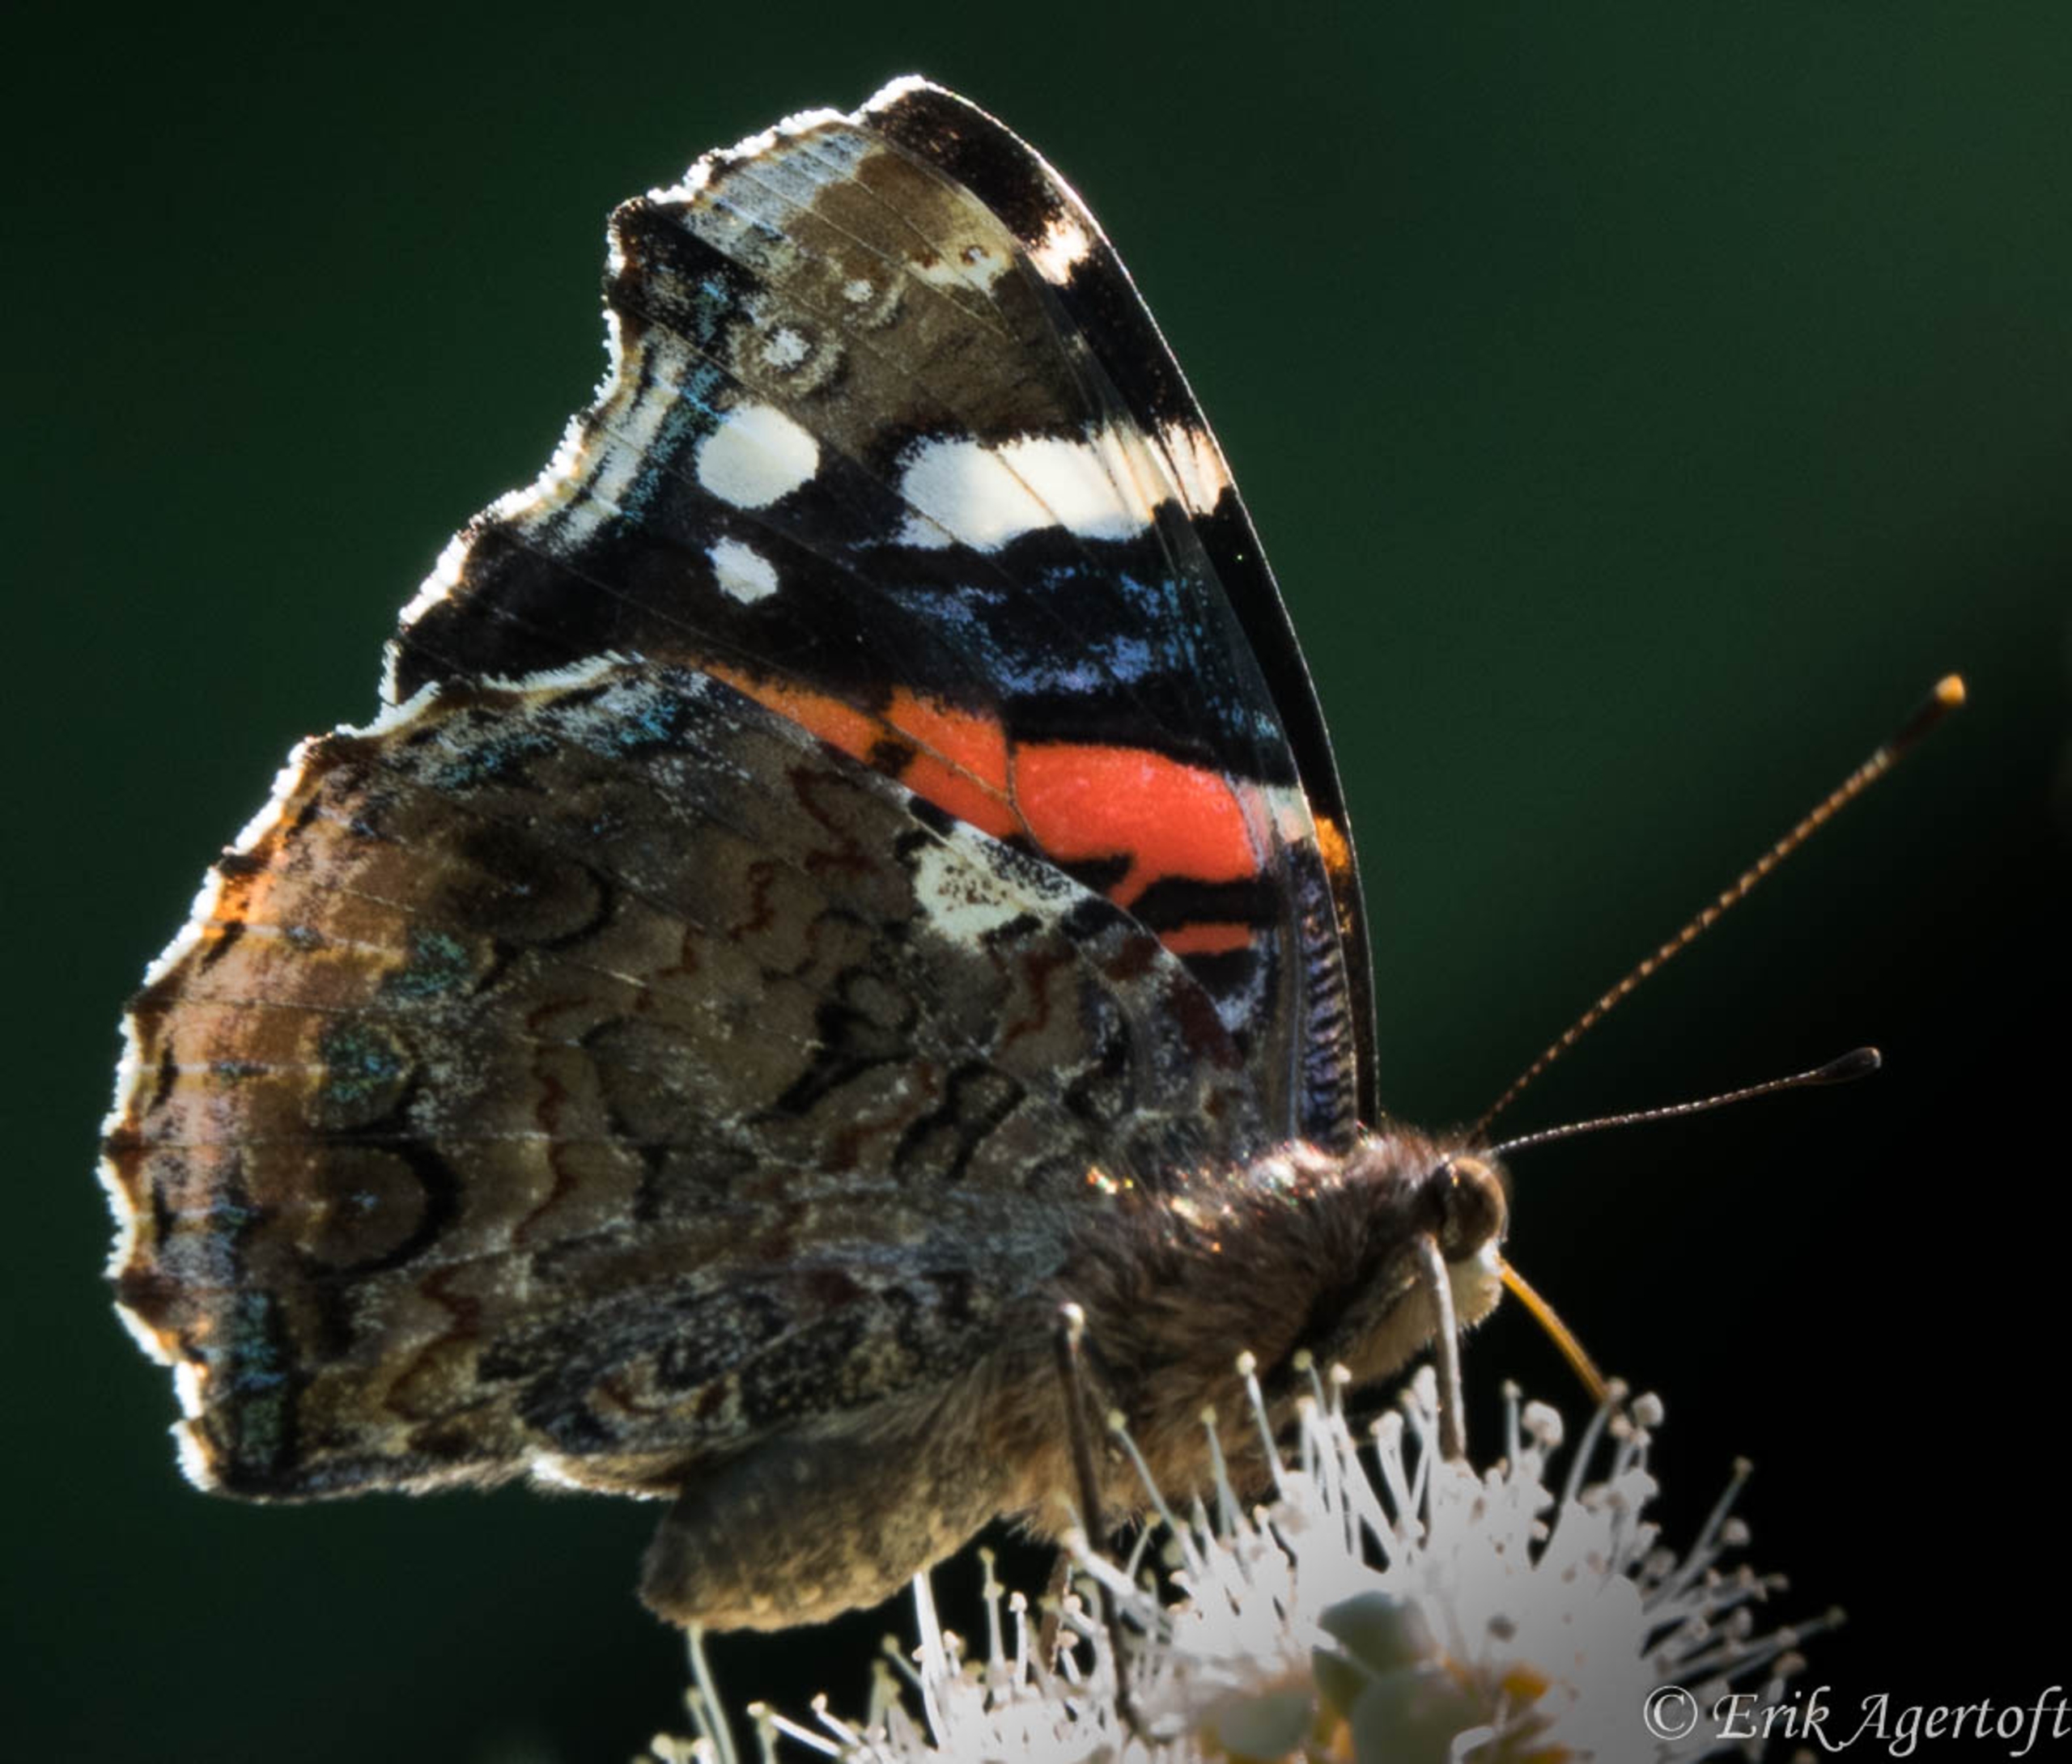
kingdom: Animalia
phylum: Arthropoda
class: Insecta
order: Lepidoptera
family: Nymphalidae
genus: Vanessa
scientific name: Vanessa atalanta
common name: Admiral
